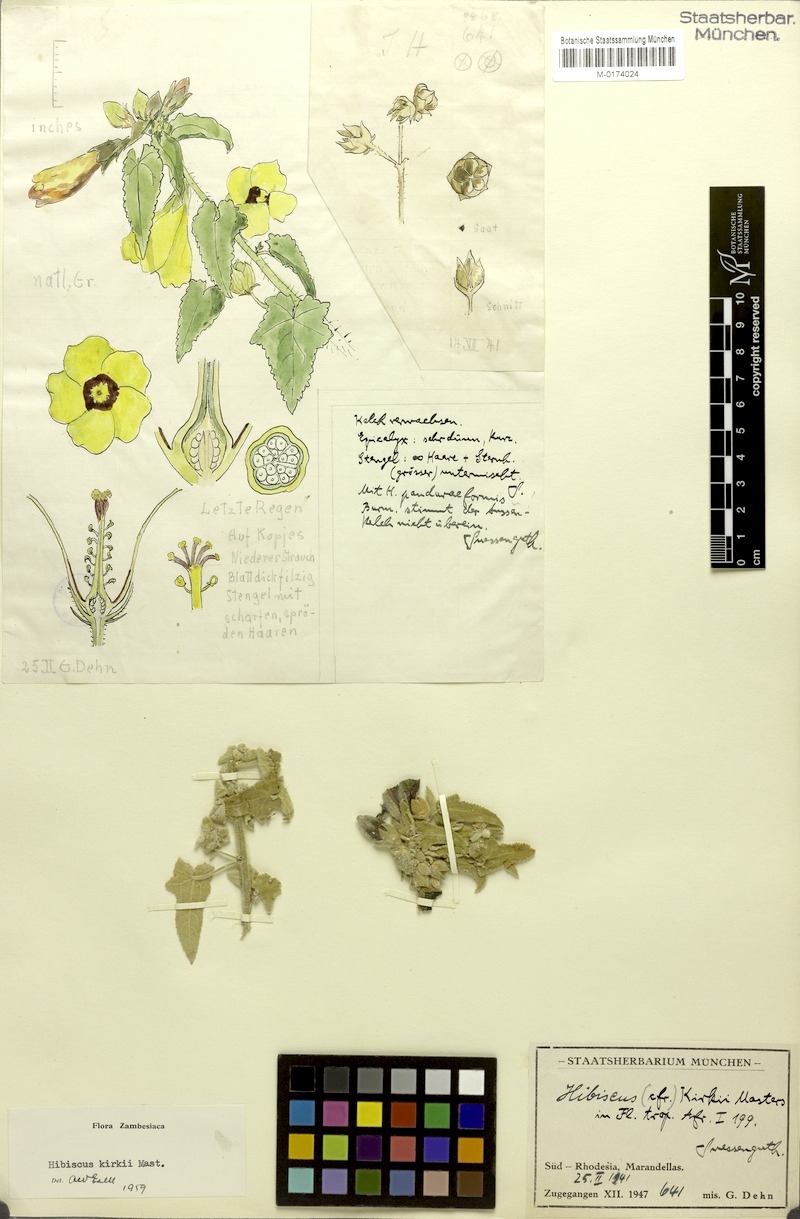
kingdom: Plantae
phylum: Tracheophyta
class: Magnoliopsida
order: Malvales
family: Malvaceae
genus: Hibiscus
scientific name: Hibiscus kirkii
